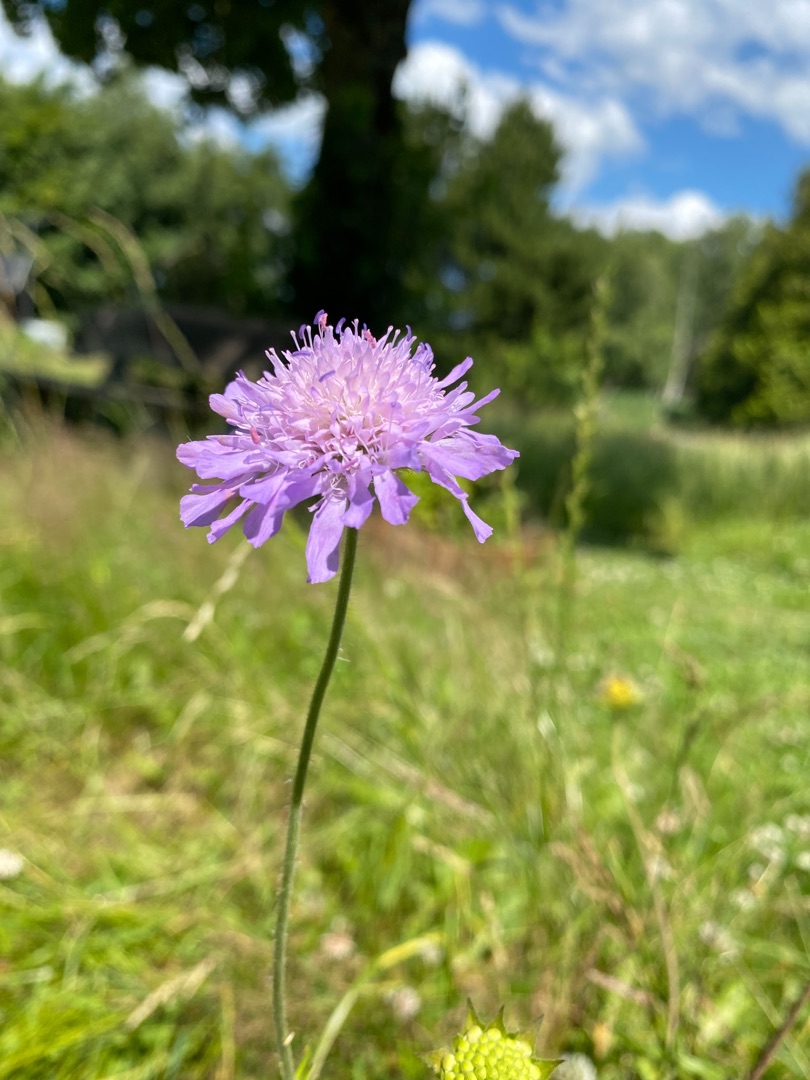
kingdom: Plantae
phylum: Tracheophyta
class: Magnoliopsida
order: Dipsacales
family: Caprifoliaceae
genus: Knautia
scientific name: Knautia arvensis
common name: Blåhat
